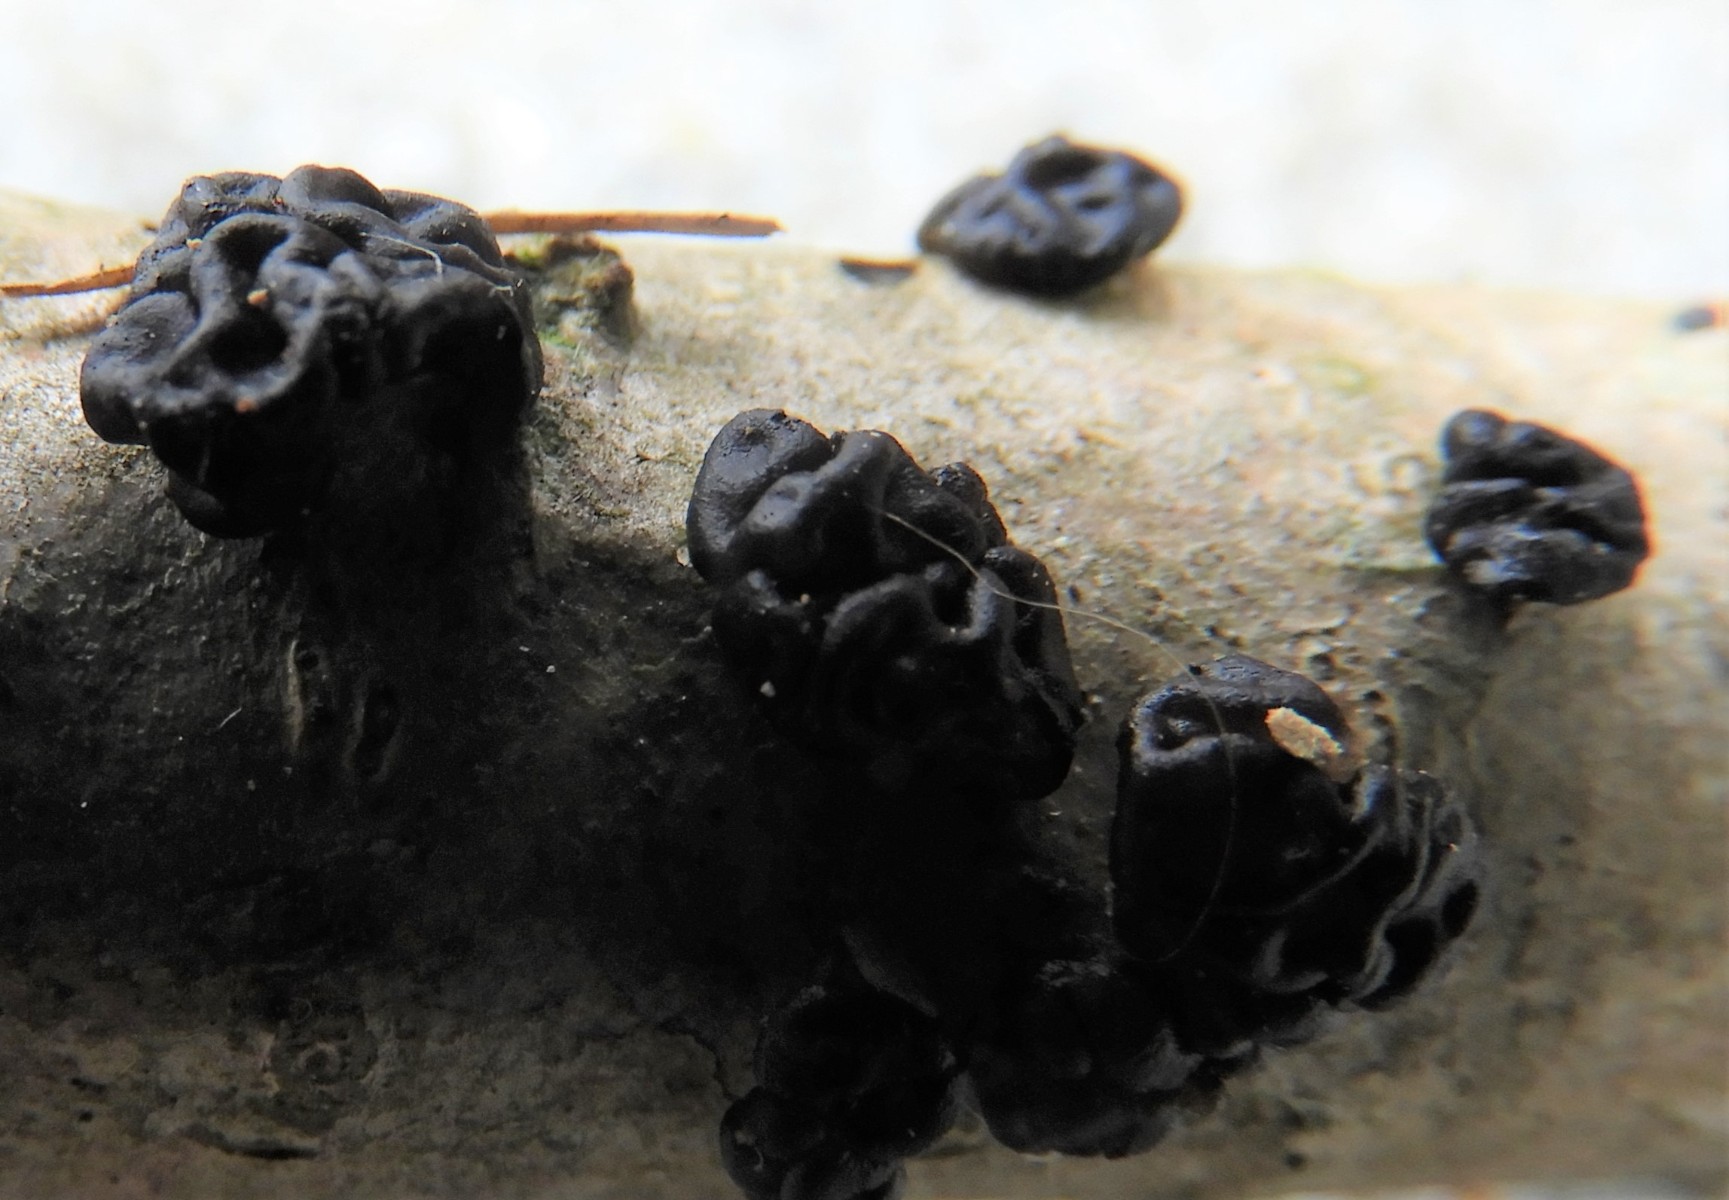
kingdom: Fungi
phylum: Basidiomycota
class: Tremellomycetes
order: Tremellales
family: Exidiaceae
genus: Exidia
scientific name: Exidia
